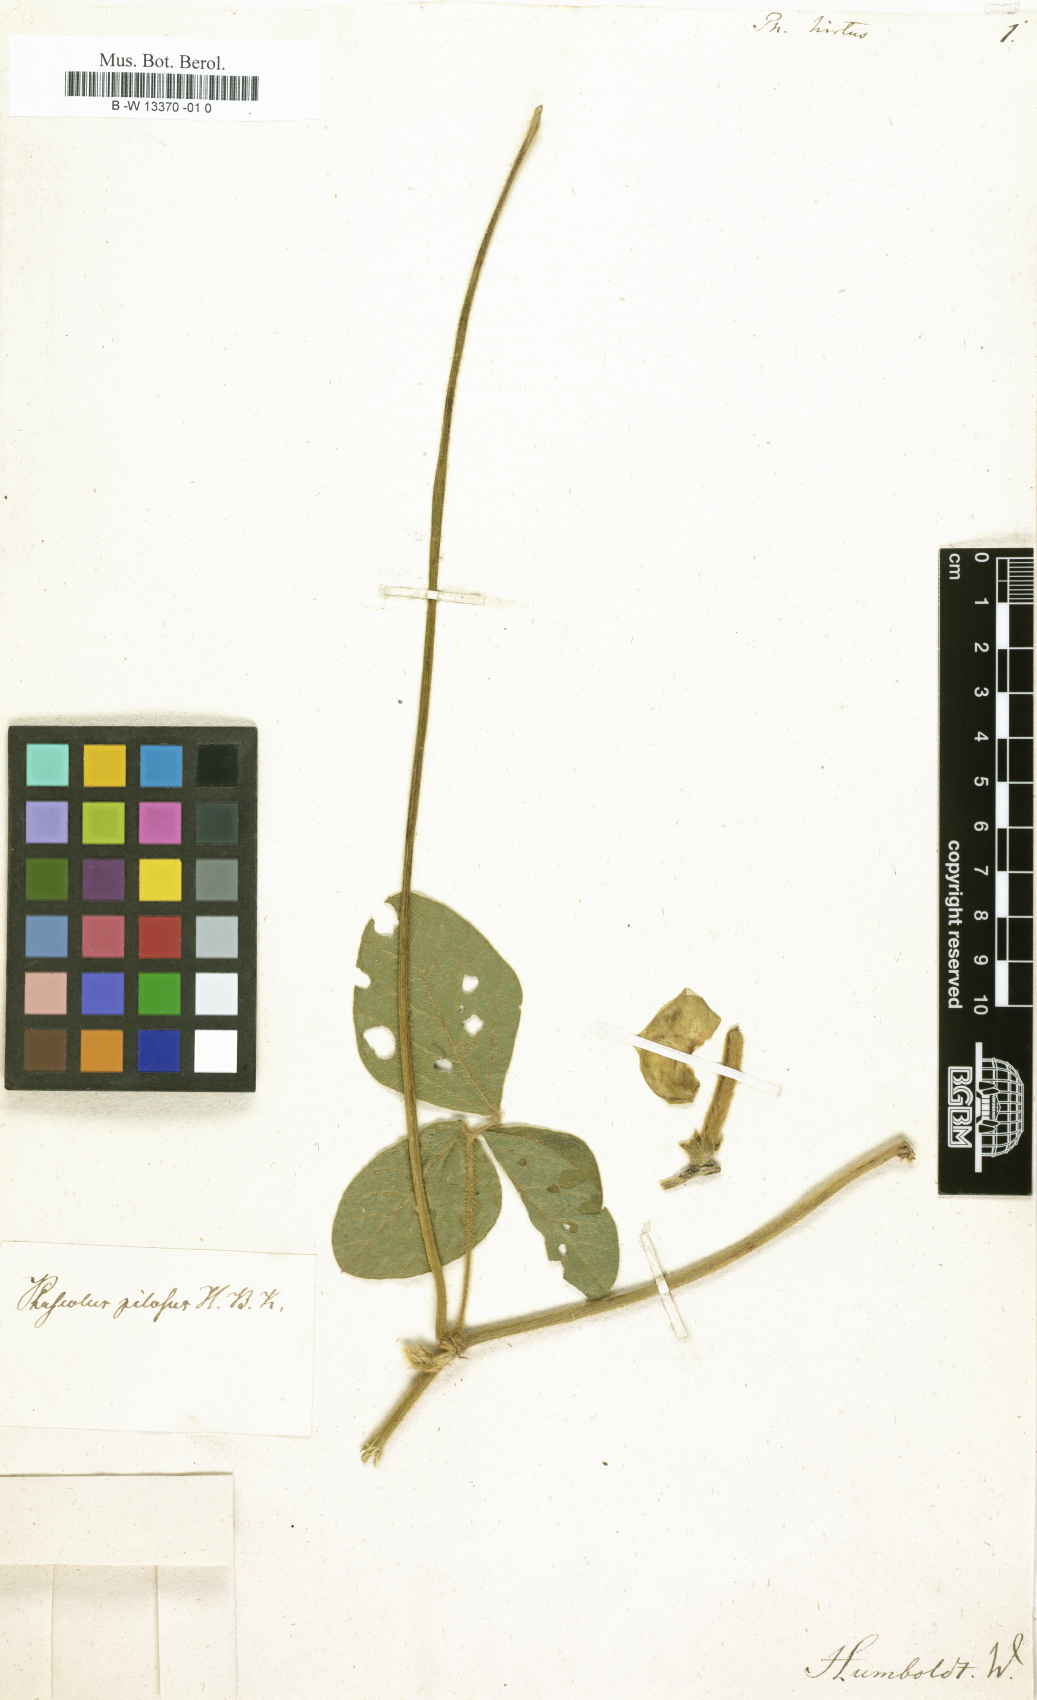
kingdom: Plantae
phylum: Tracheophyta
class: Magnoliopsida
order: Fabales
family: Fabaceae
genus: Vigna
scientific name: Vigna mungo
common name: Black gram
